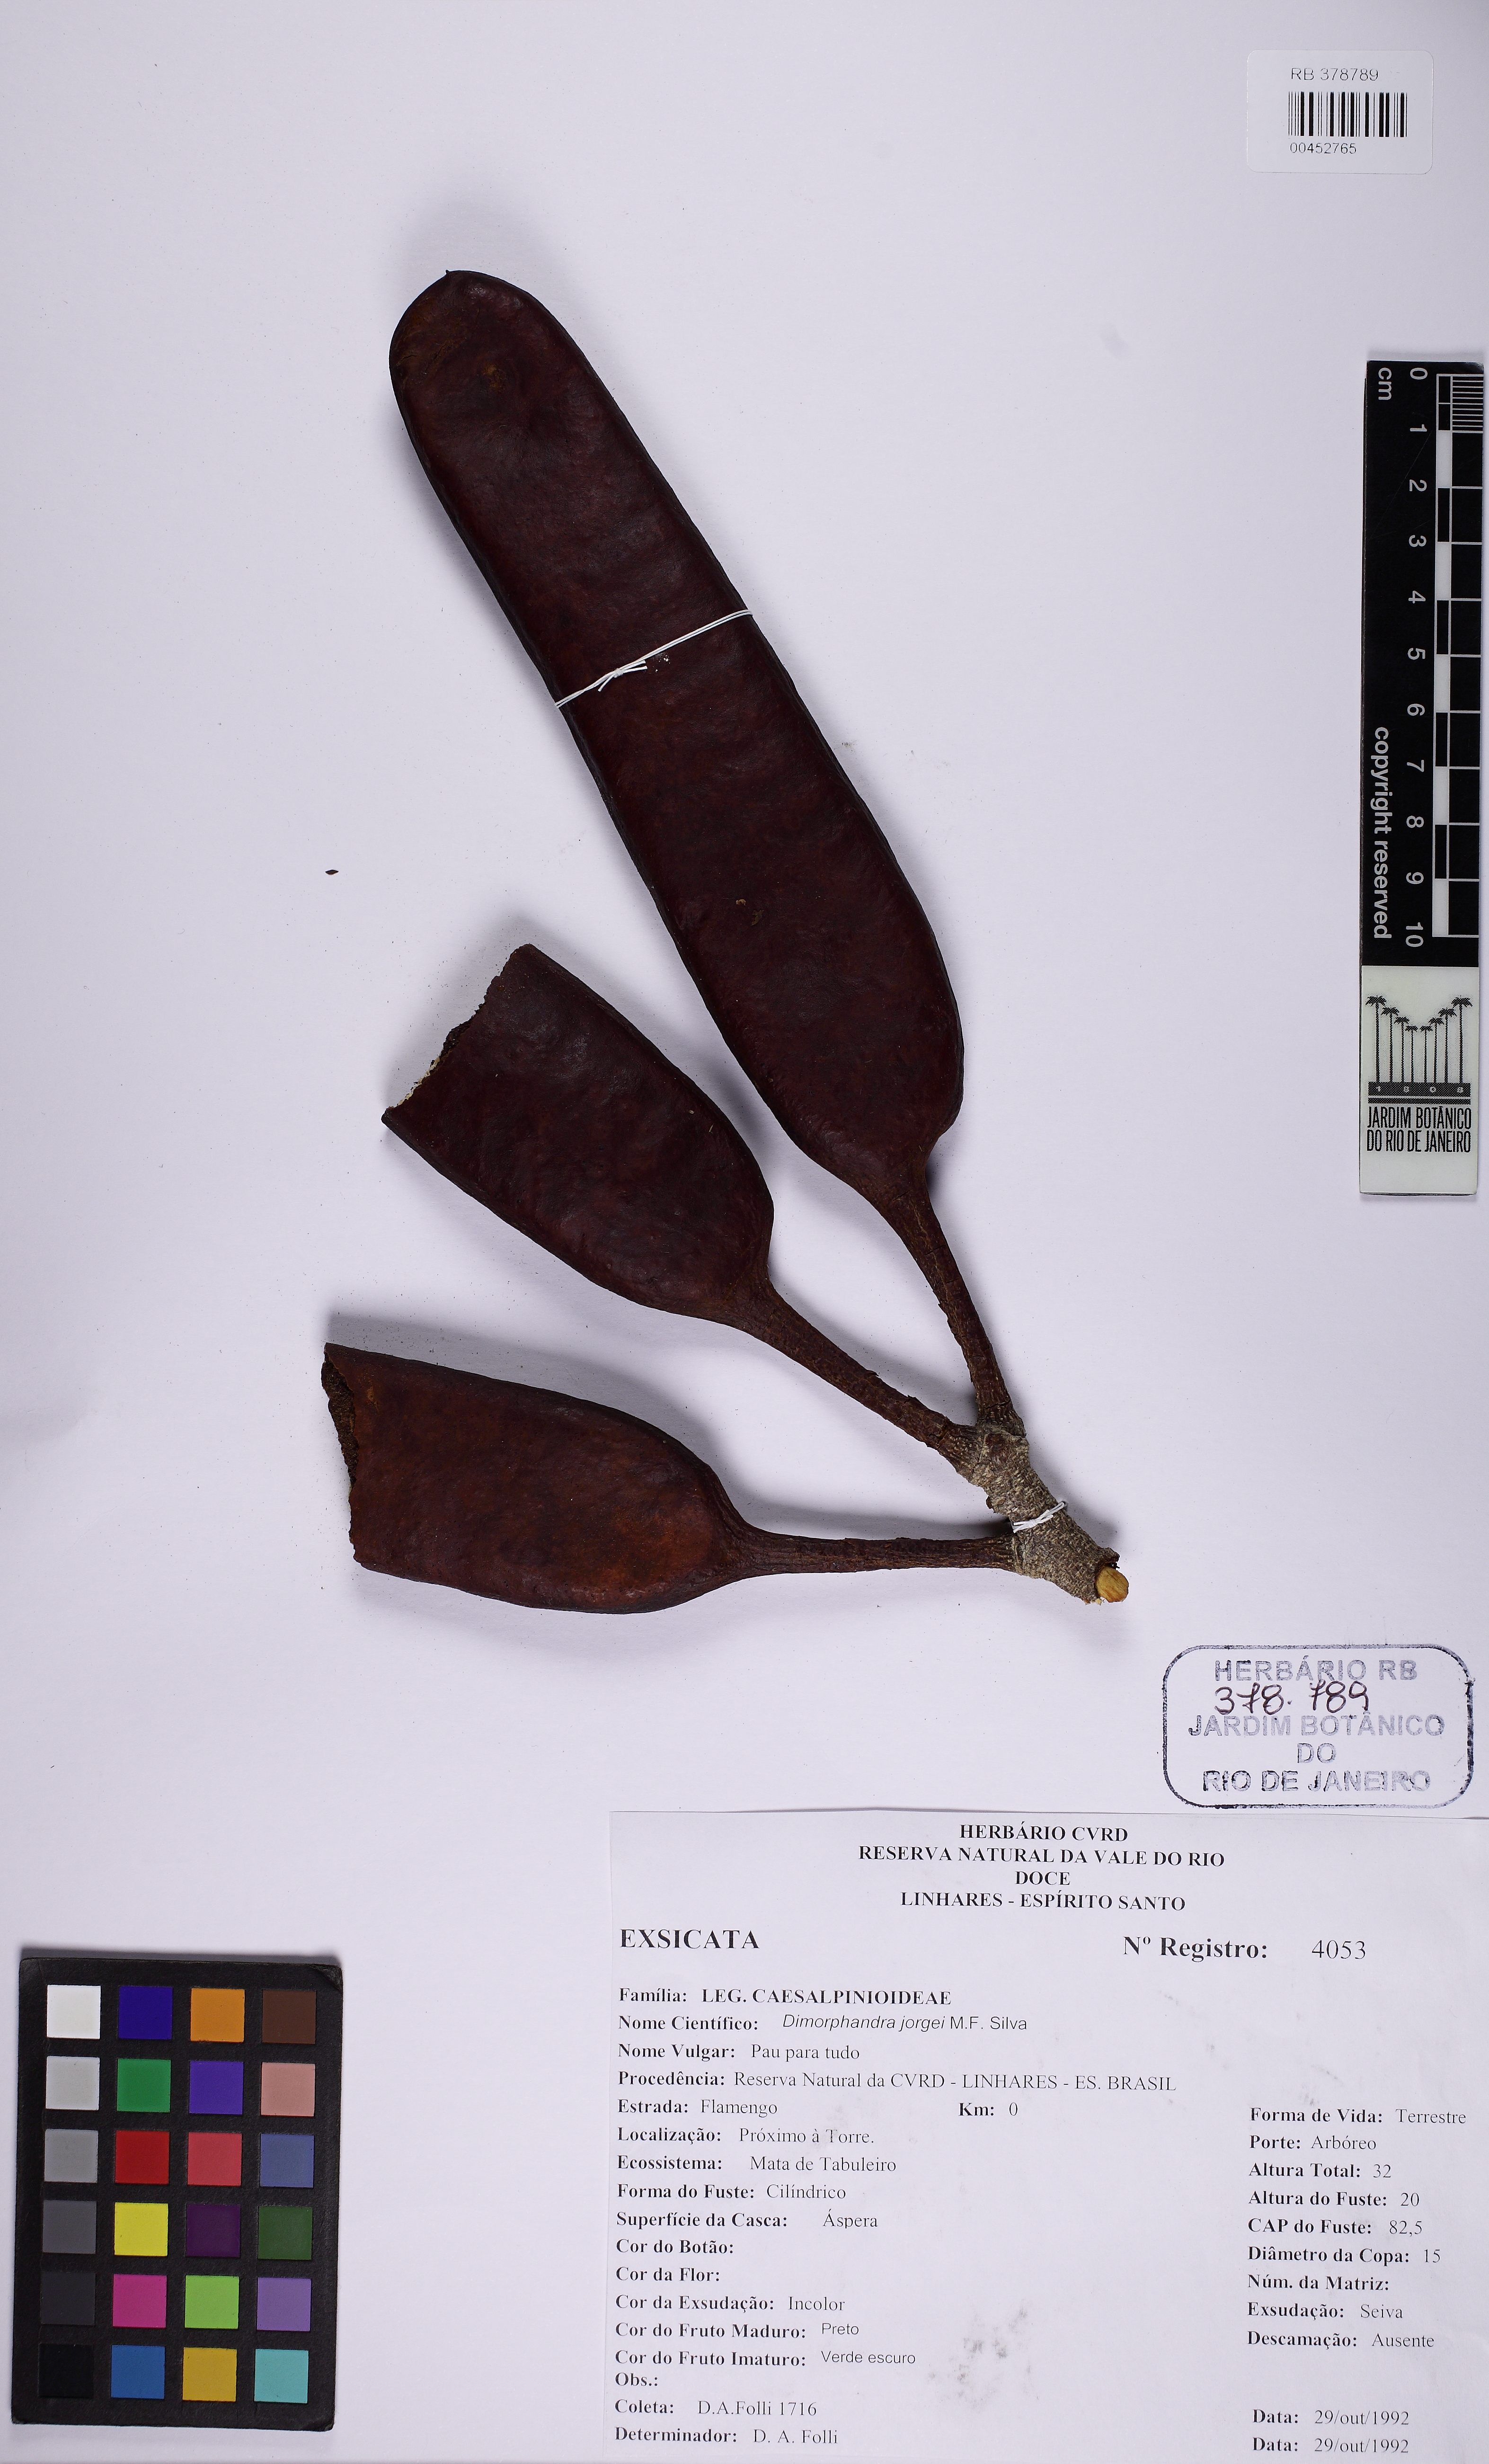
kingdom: Plantae
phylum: Tracheophyta
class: Magnoliopsida
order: Fabales
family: Fabaceae
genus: Dimorphandra
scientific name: Dimorphandra jorgei
